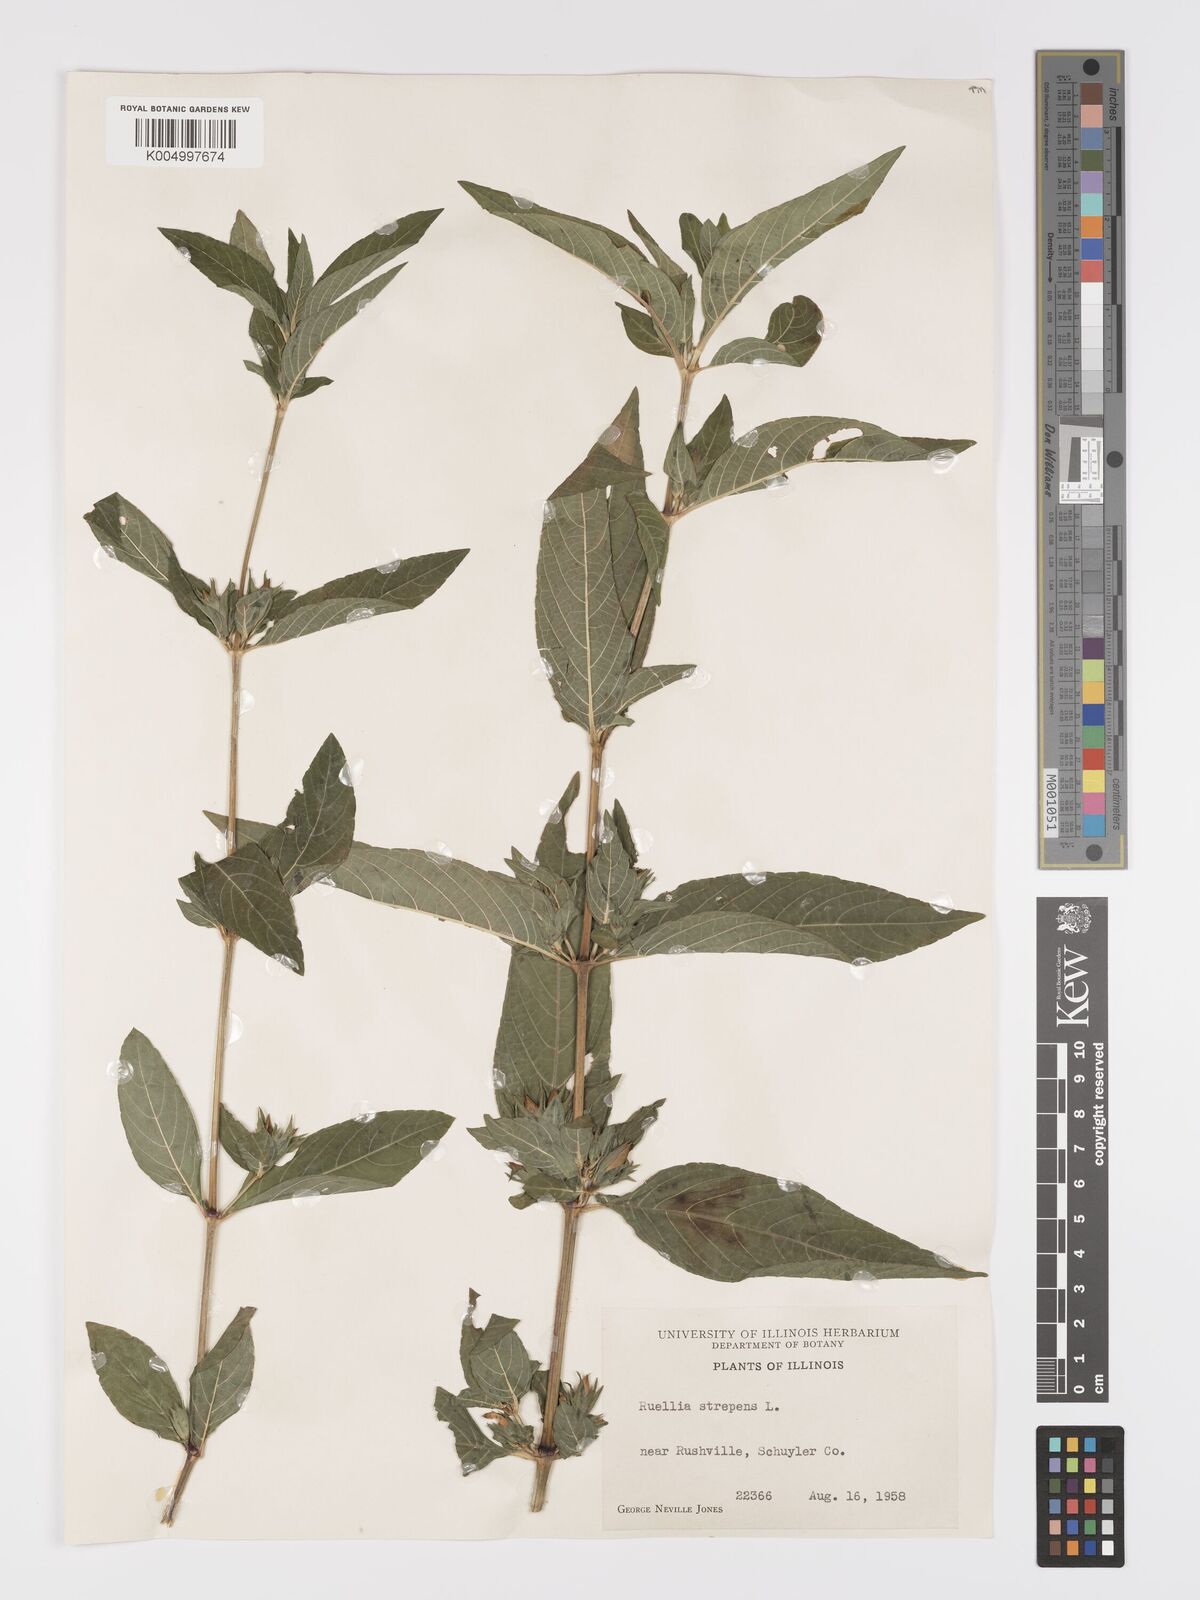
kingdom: Plantae
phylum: Tracheophyta
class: Magnoliopsida
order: Lamiales
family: Acanthaceae
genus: Ruellia
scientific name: Ruellia strepens
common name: Limestone wild petunia
